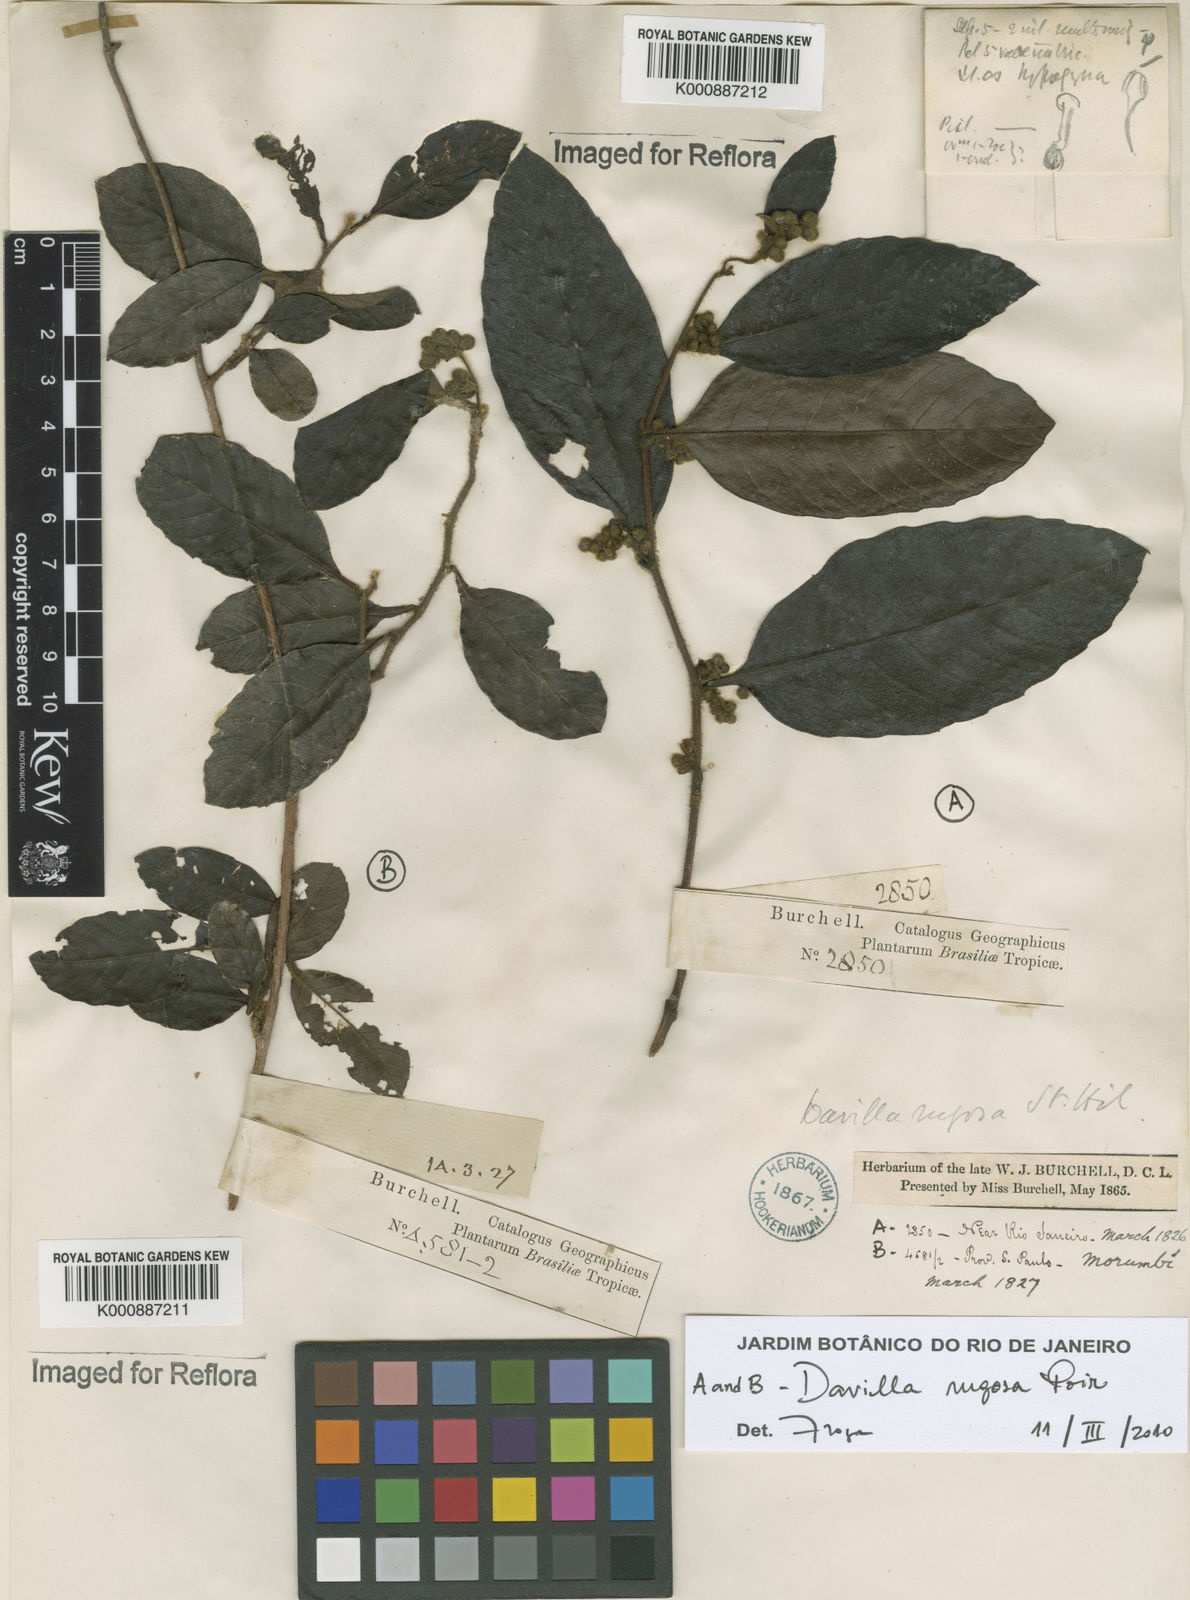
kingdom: Plantae
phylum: Tracheophyta
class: Magnoliopsida
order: Dilleniales
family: Dilleniaceae
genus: Davilla
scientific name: Davilla rugosa
